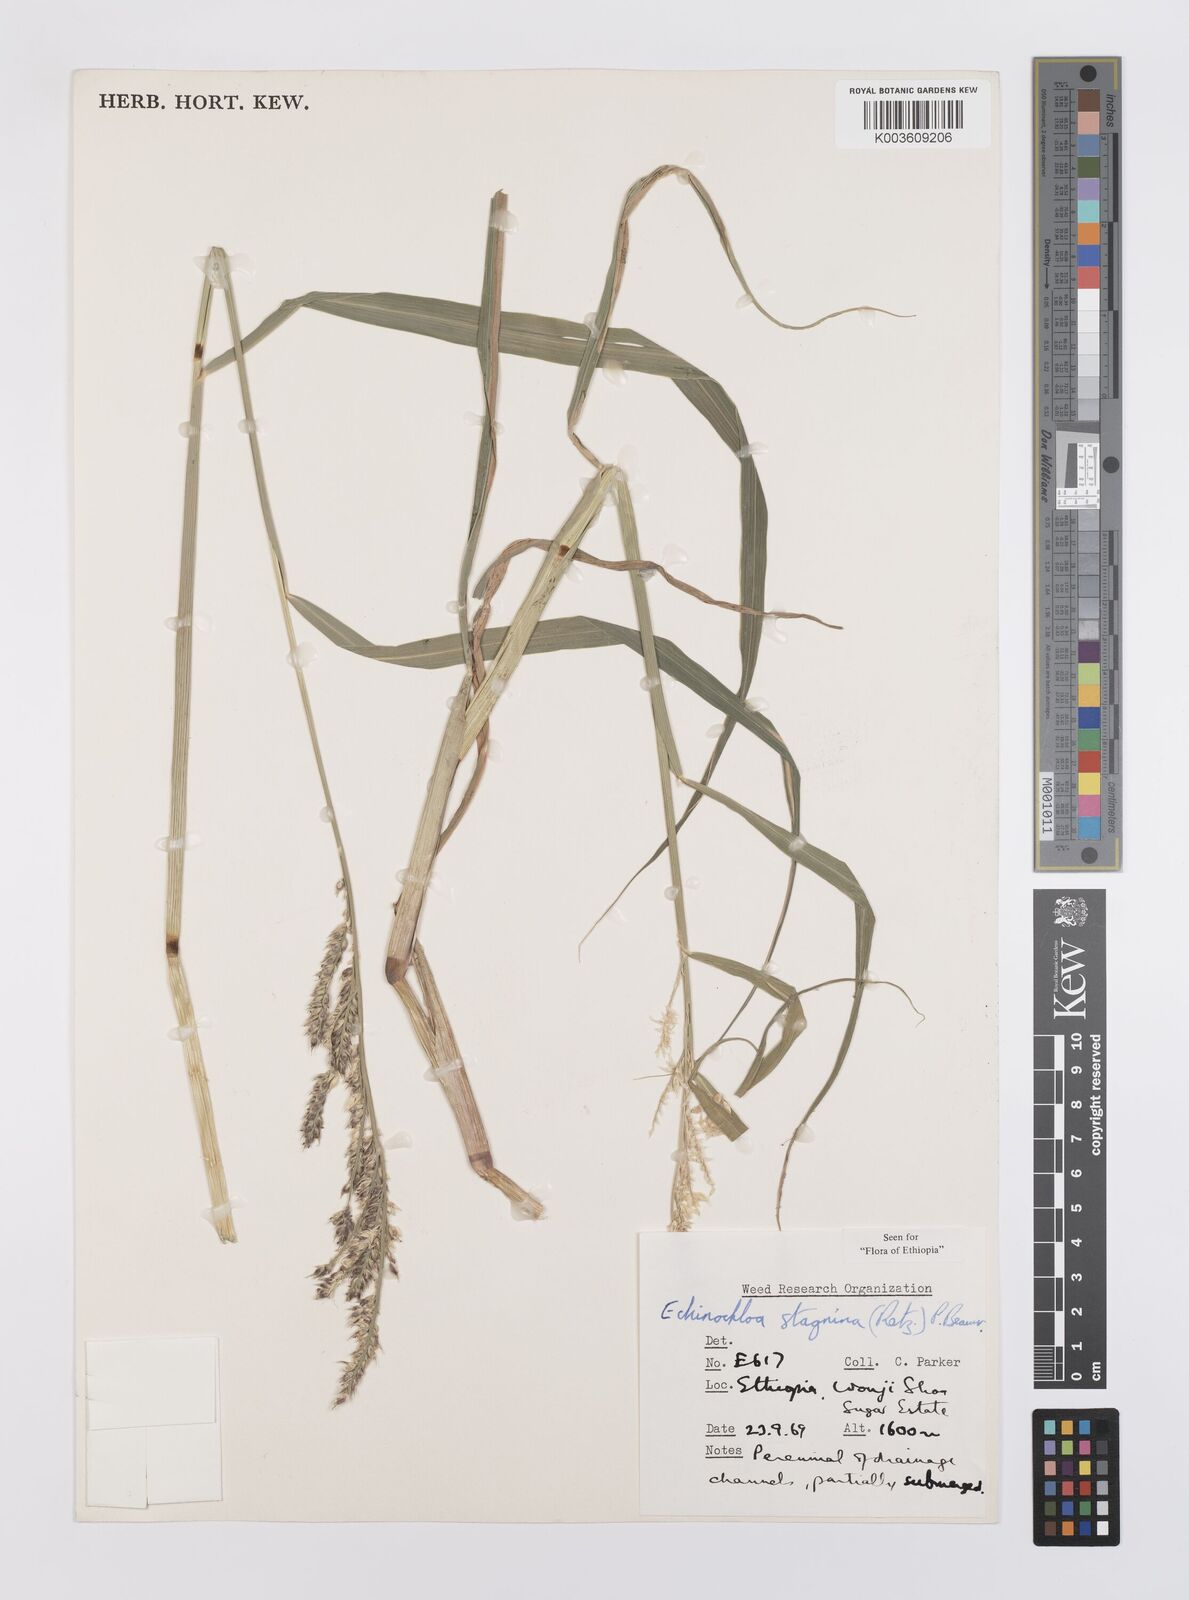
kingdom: Plantae
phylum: Tracheophyta
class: Liliopsida
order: Poales
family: Poaceae
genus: Echinochloa
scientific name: Echinochloa stagnina
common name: Burgu grass
